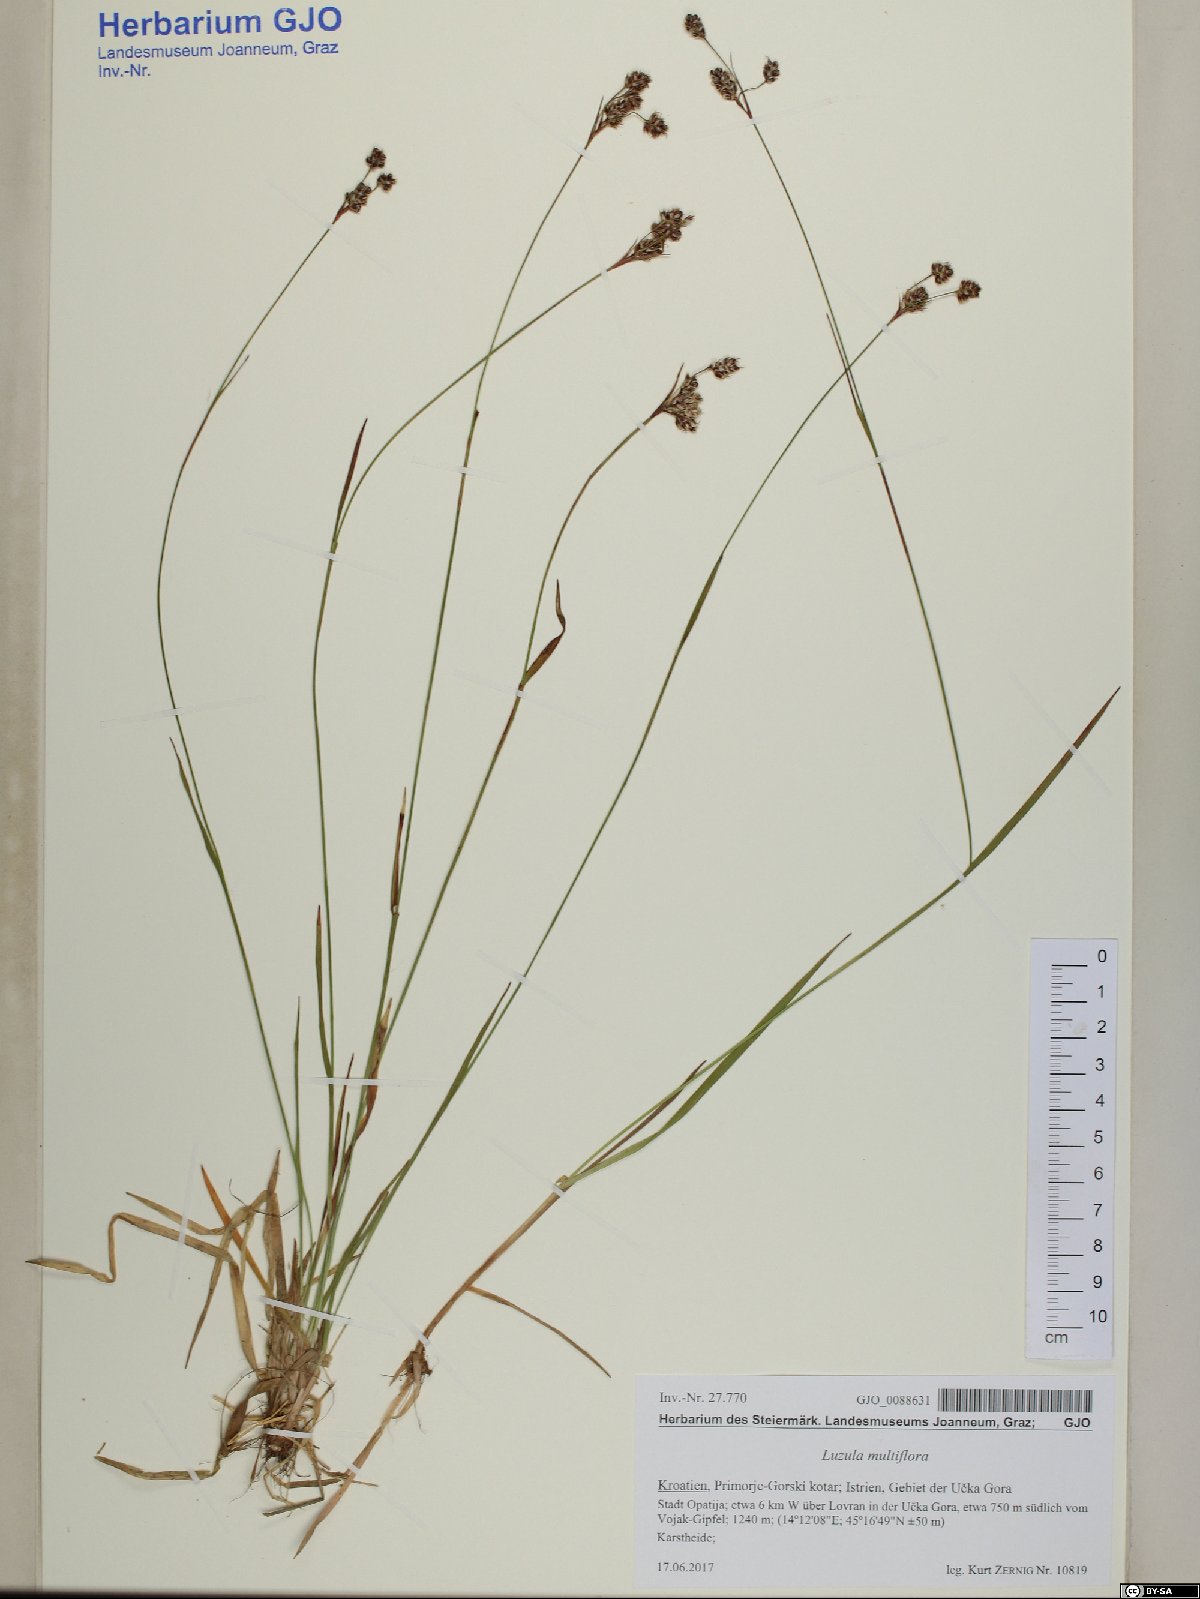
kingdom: Plantae
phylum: Tracheophyta
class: Liliopsida
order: Poales
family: Juncaceae
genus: Luzula
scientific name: Luzula multiflora
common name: Heath wood-rush
